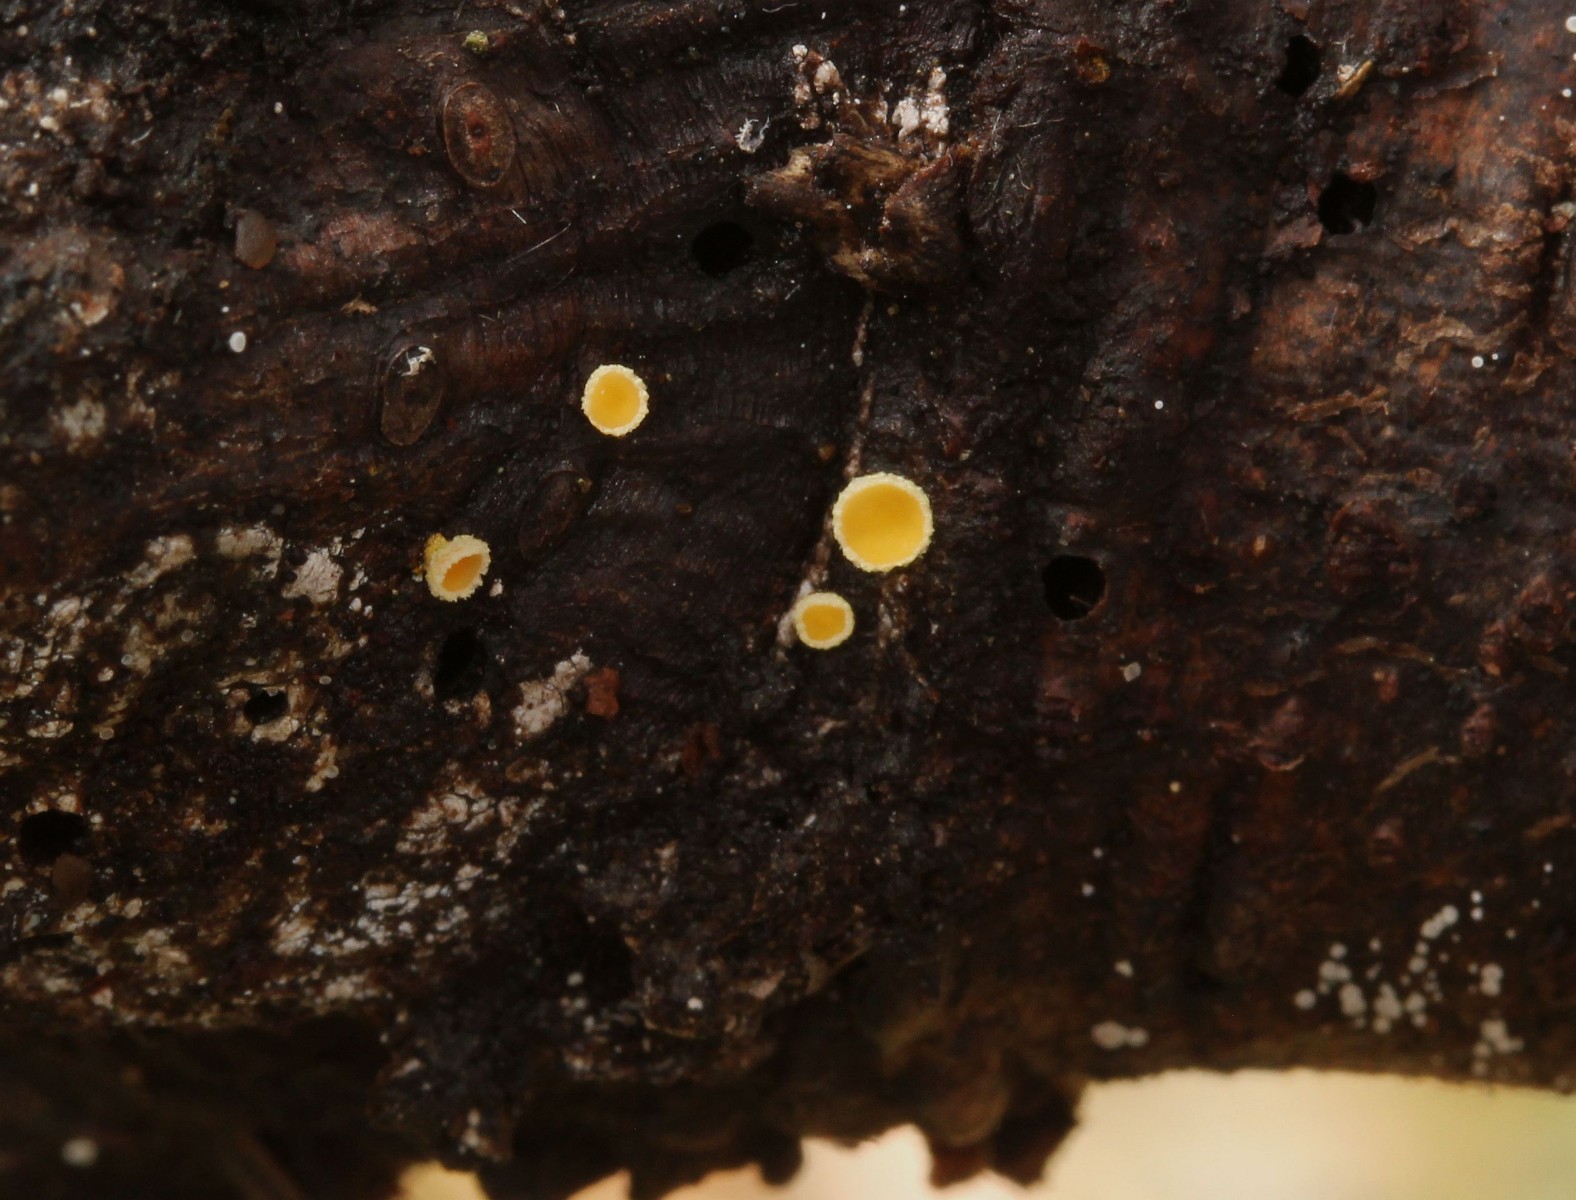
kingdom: Fungi
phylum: Ascomycota
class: Leotiomycetes
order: Helotiales
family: Lachnaceae
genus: Lachnellula
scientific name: Lachnellula calyciformis
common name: ædelgran-frynseskive
